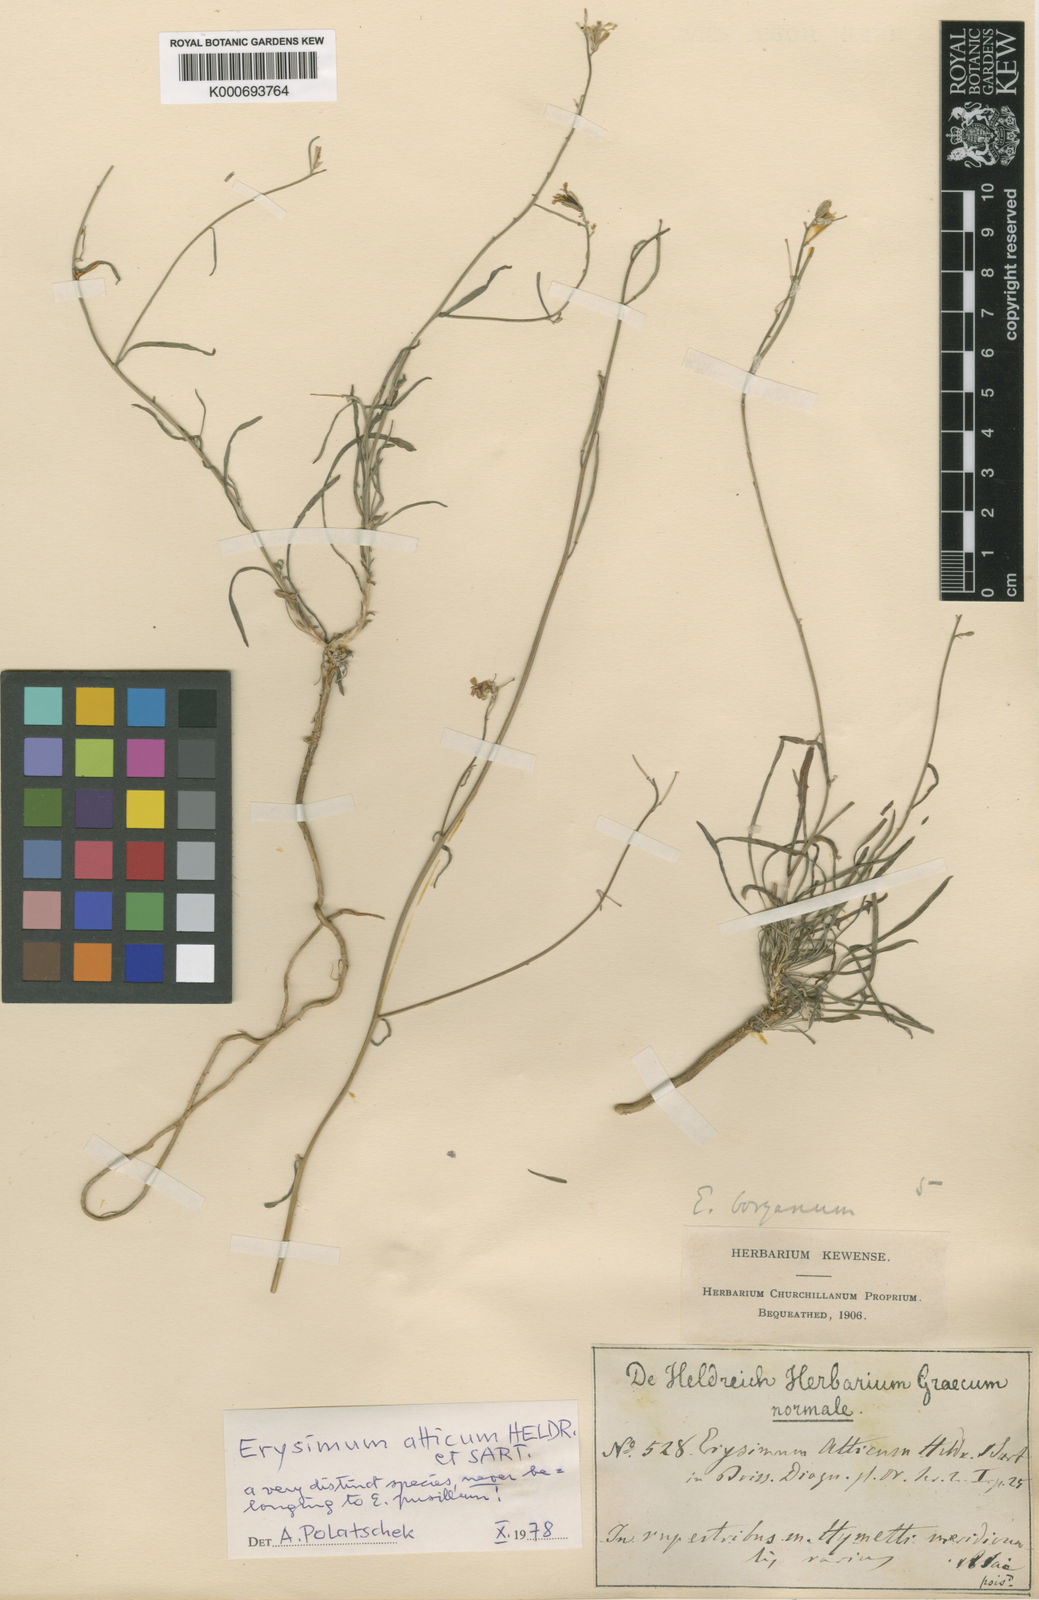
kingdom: Plantae
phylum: Tracheophyta
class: Magnoliopsida
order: Brassicales
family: Brassicaceae
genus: Erysimum
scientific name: Erysimum
